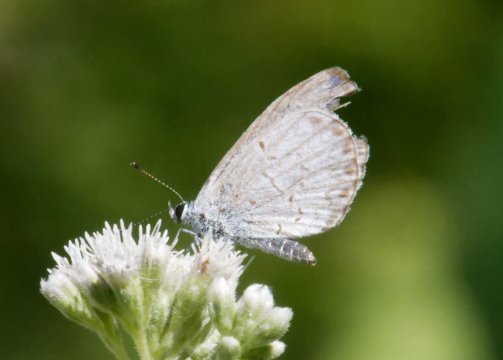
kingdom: Animalia
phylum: Arthropoda
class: Insecta
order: Lepidoptera
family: Lycaenidae
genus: Celastrina
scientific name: Celastrina
